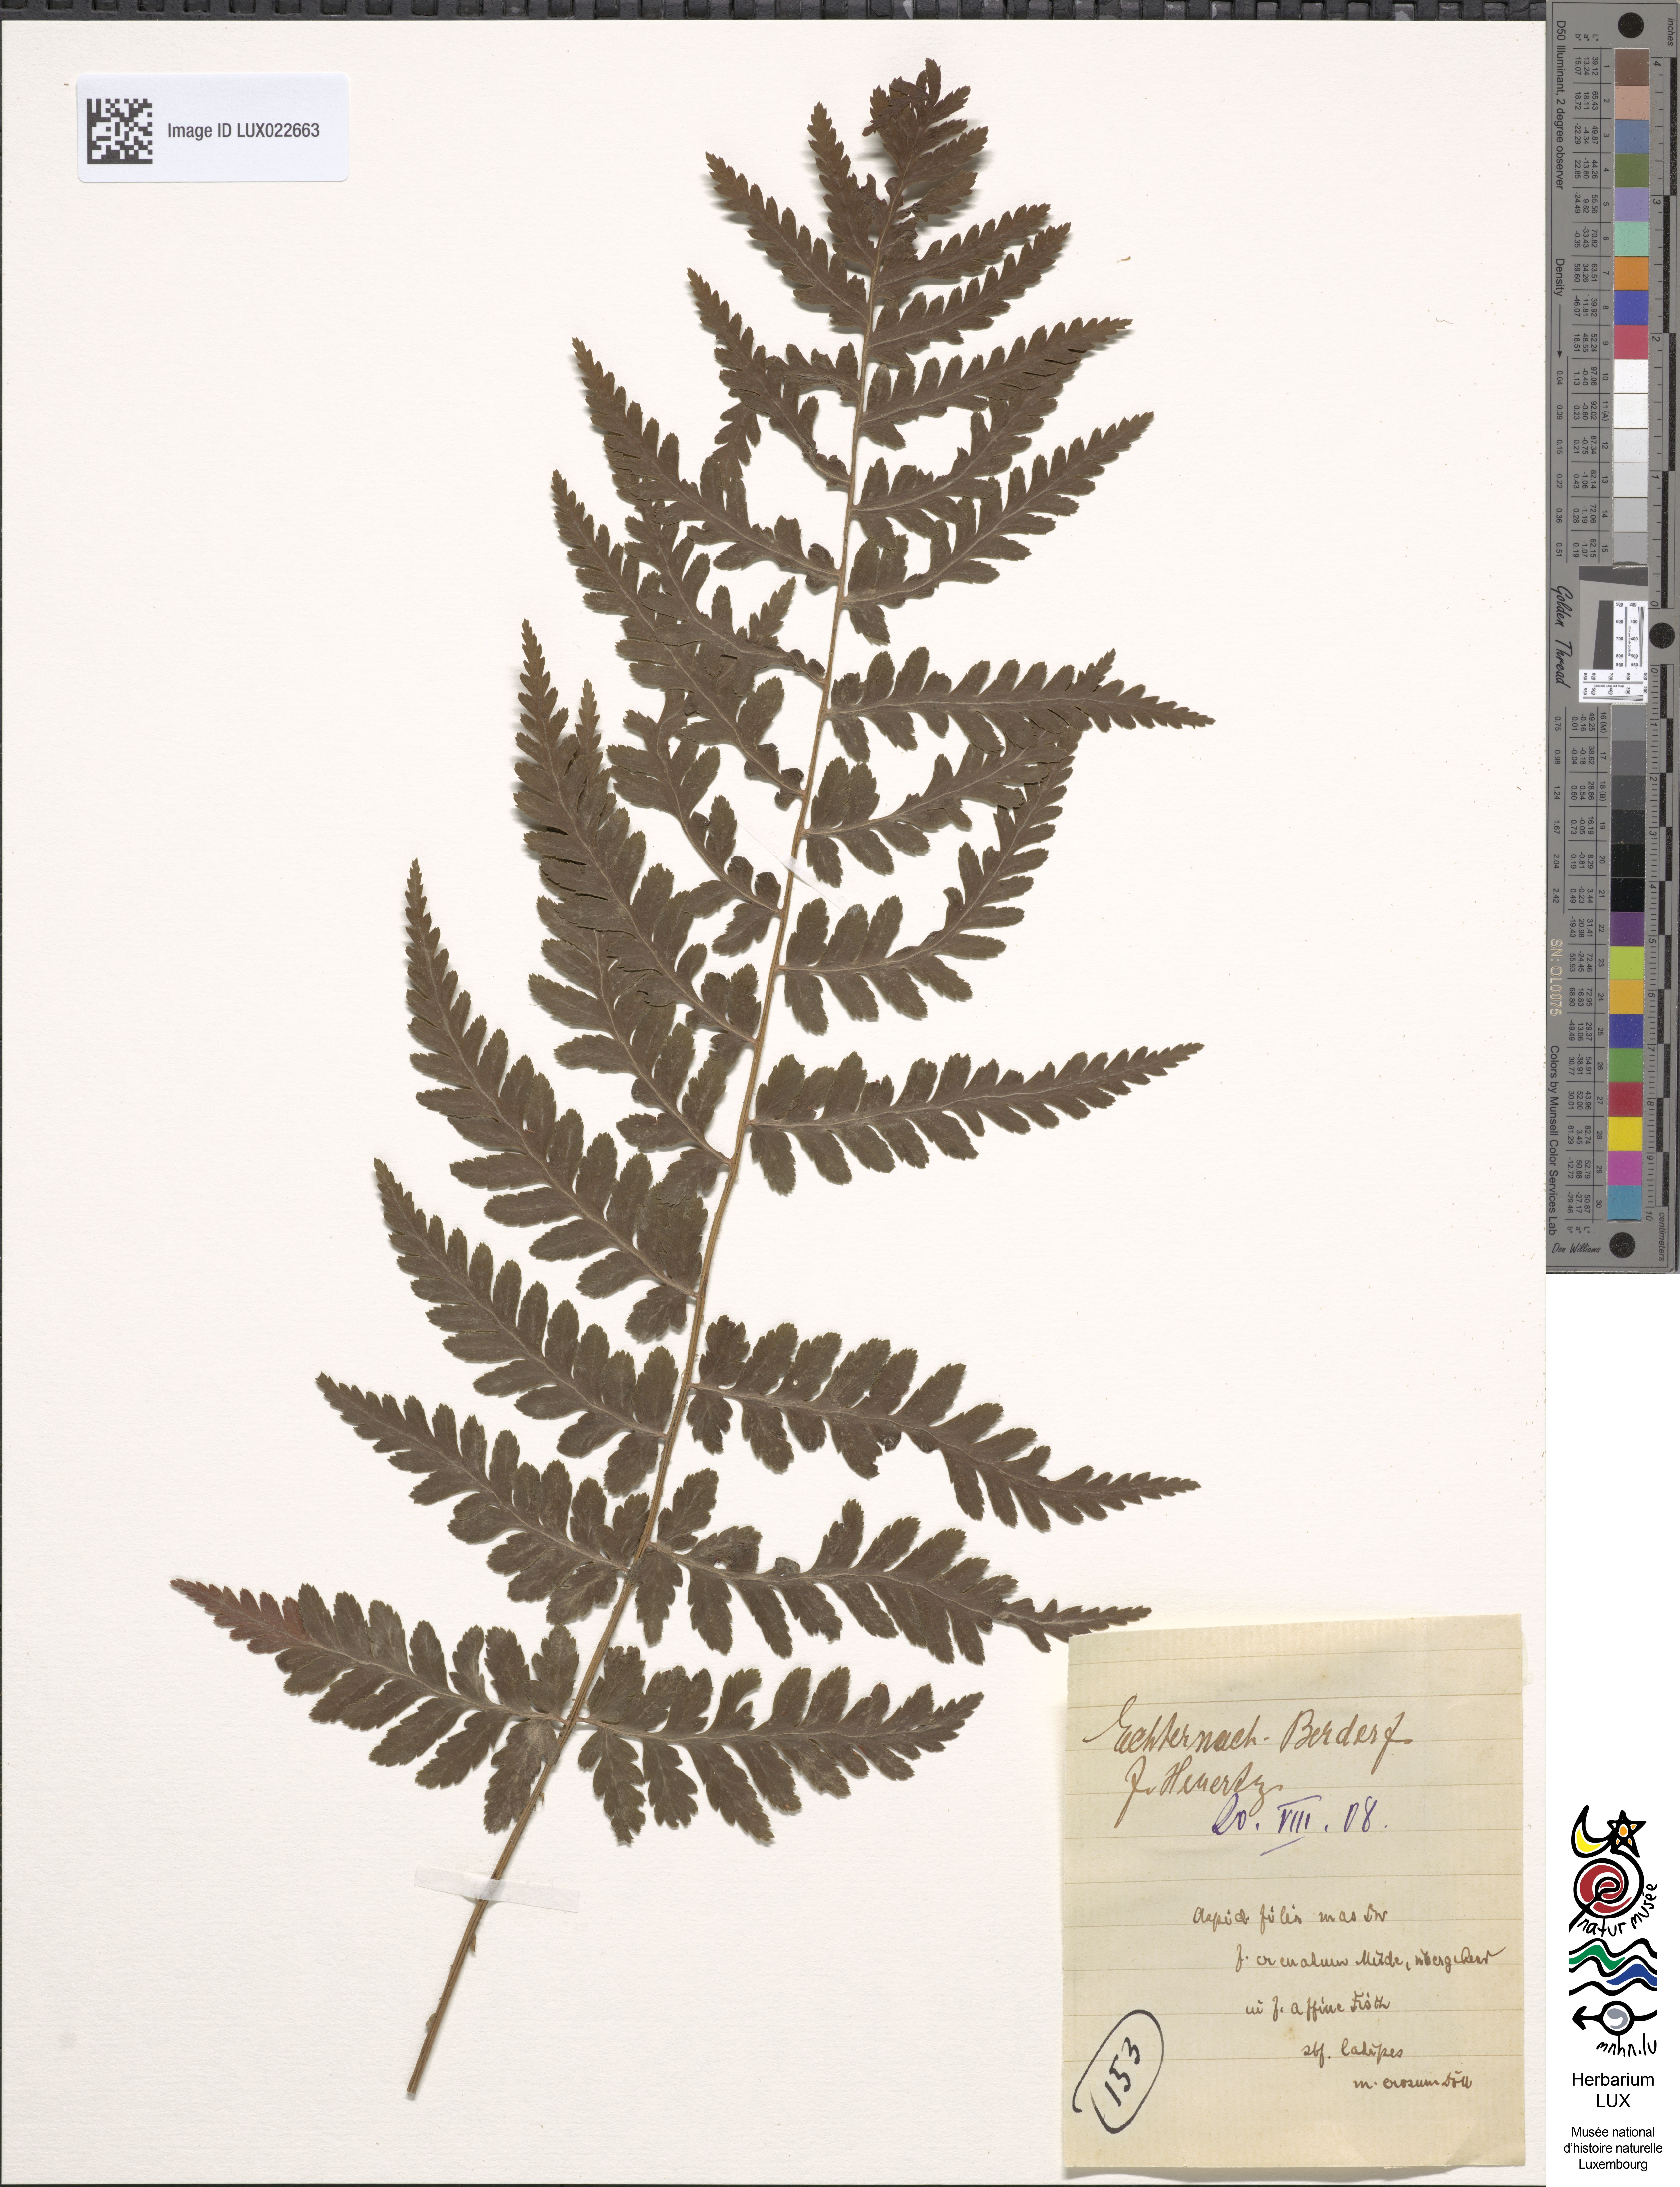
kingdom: Plantae
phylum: Tracheophyta
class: Polypodiopsida
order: Polypodiales
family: Dryopteridaceae
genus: Dryopteris
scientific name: Dryopteris filix-mas
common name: Male fern
